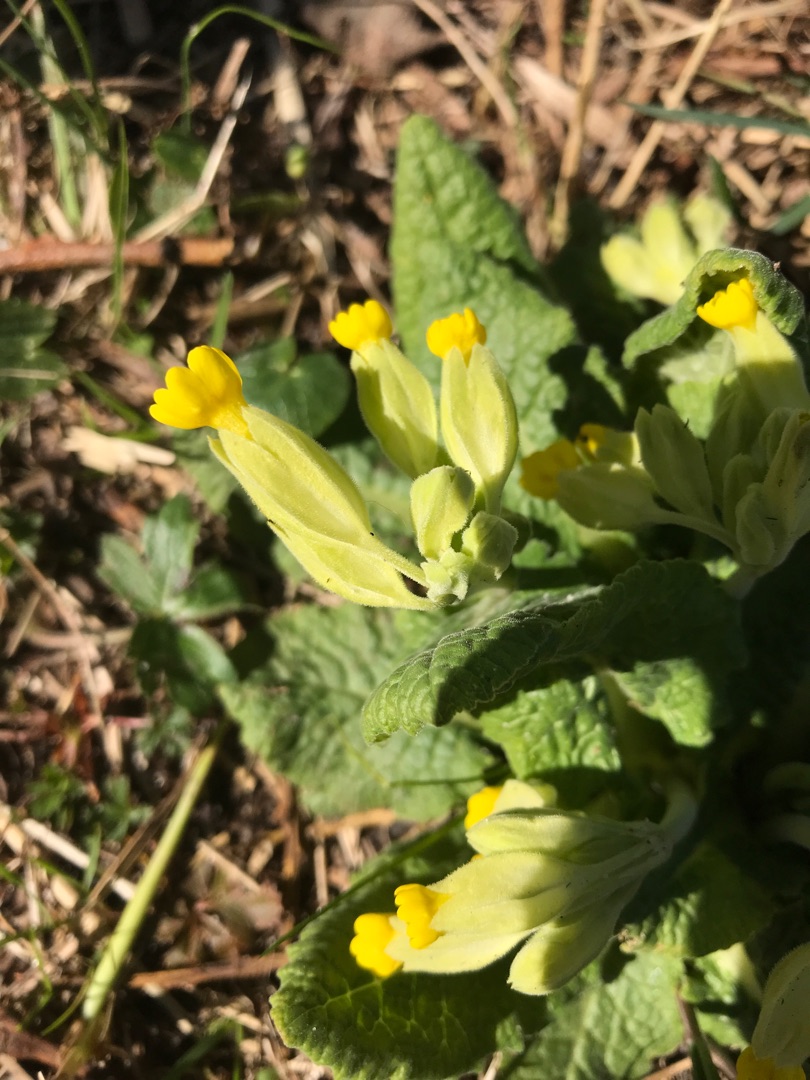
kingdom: Plantae
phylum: Tracheophyta
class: Magnoliopsida
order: Ericales
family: Primulaceae
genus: Primula
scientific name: Primula veris
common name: Hulkravet kodriver
